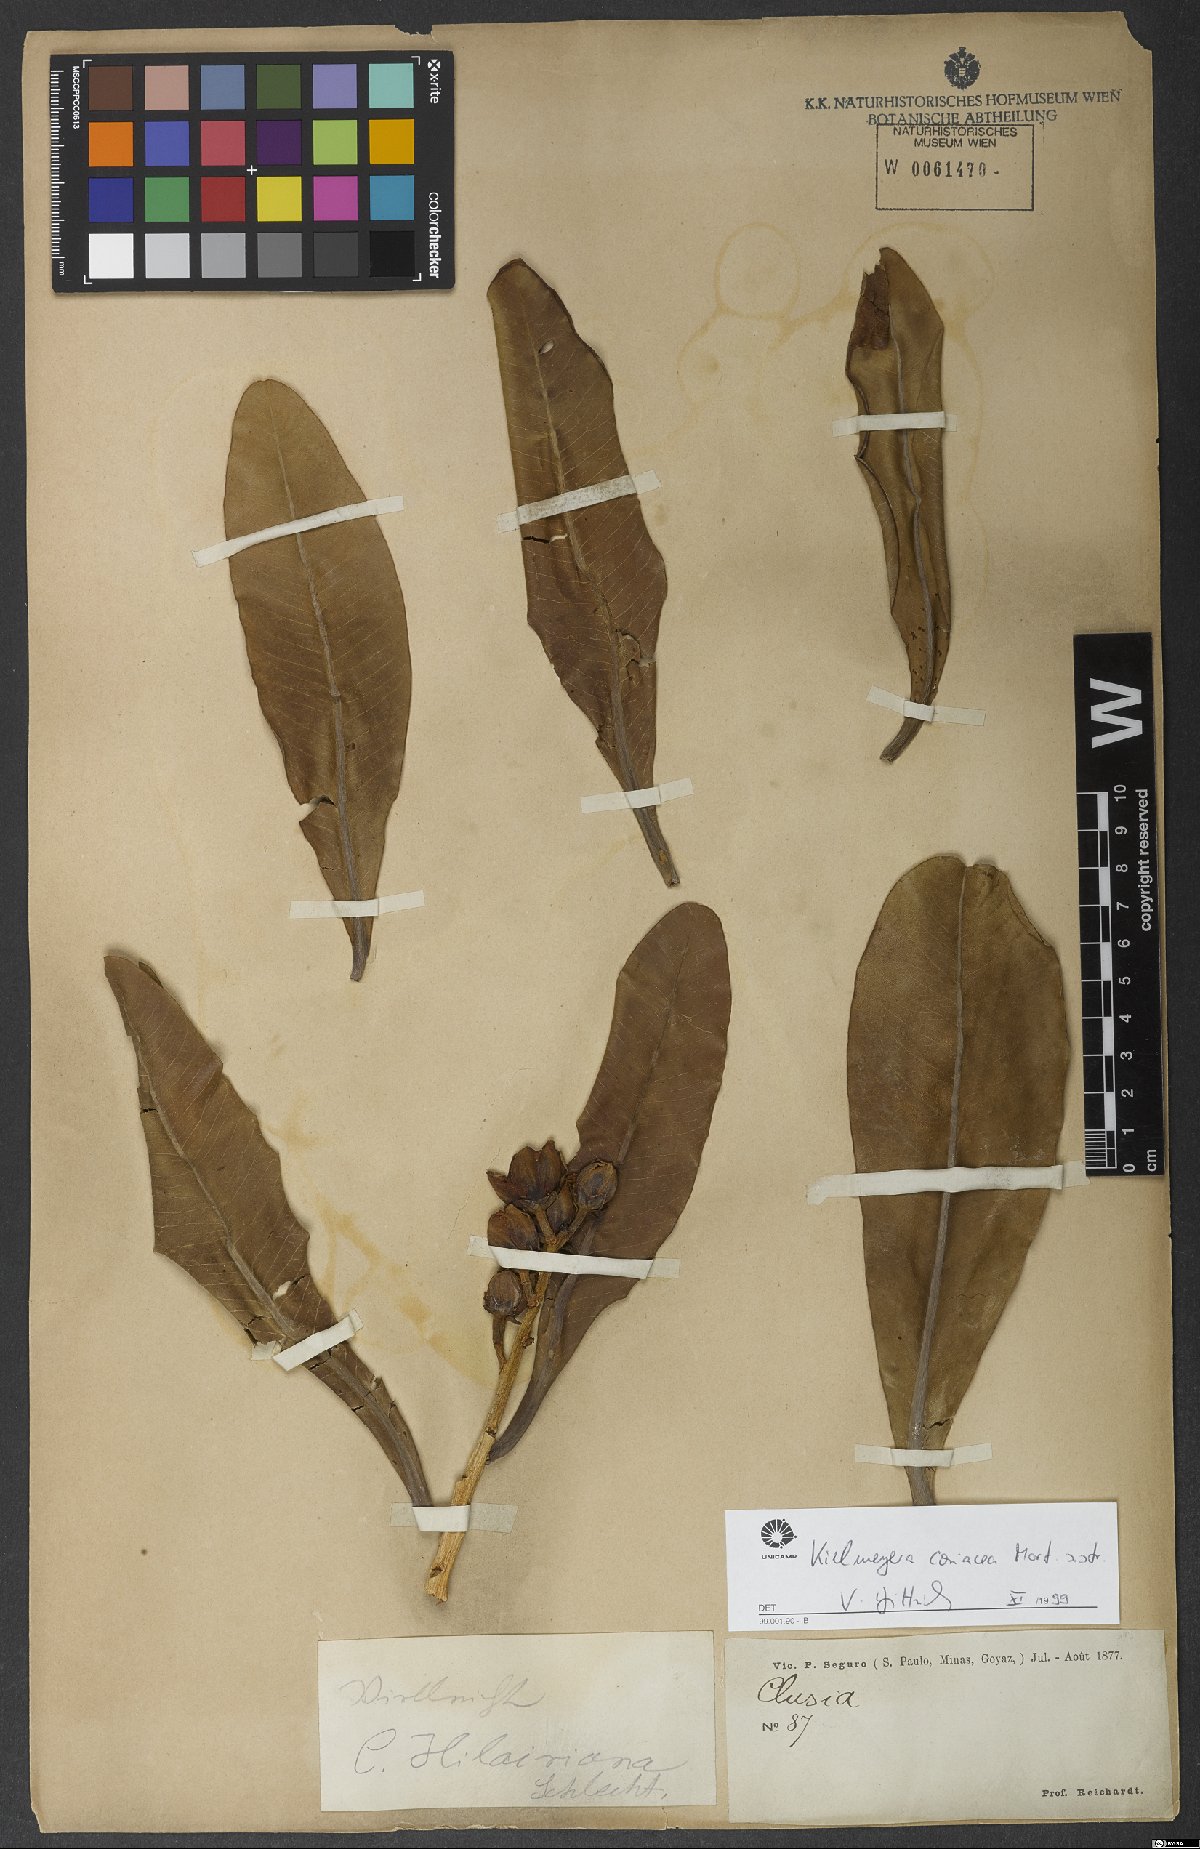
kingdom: Plantae
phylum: Tracheophyta
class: Magnoliopsida
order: Malpighiales
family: Calophyllaceae
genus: Kielmeyera
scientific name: Kielmeyera coriacea
